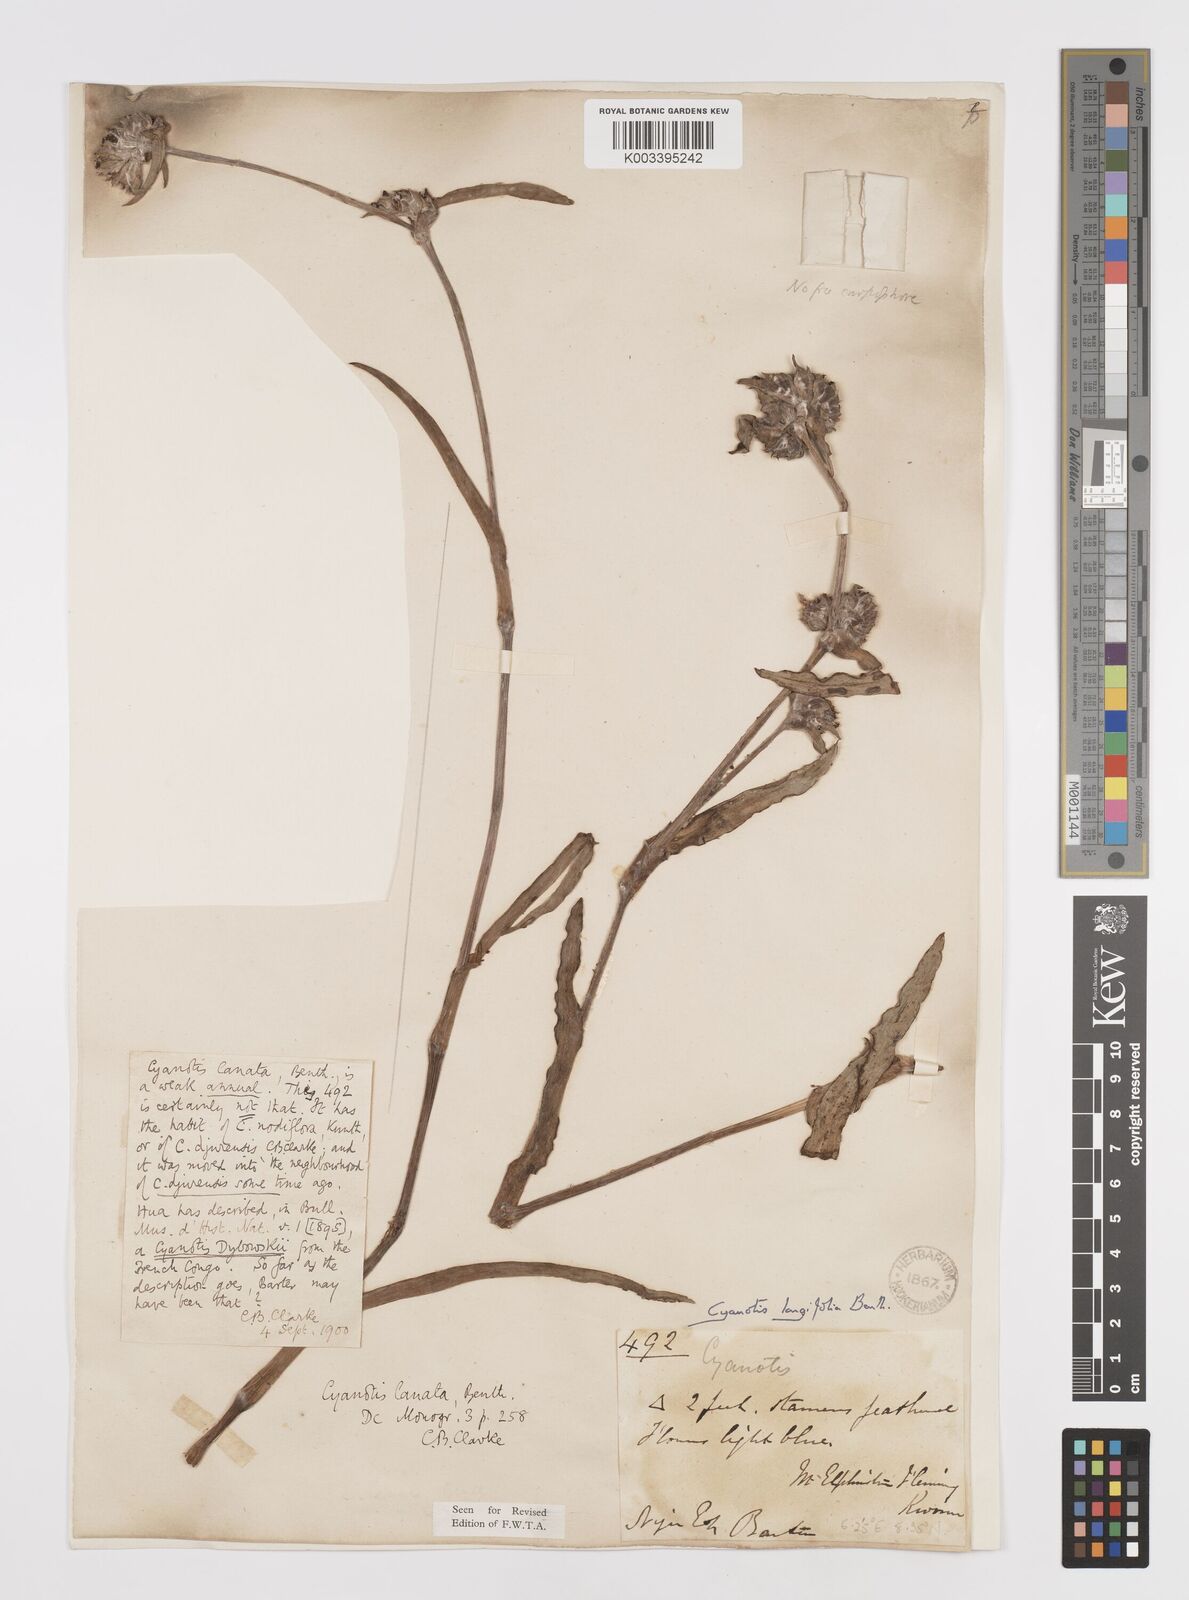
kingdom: Plantae
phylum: Tracheophyta
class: Liliopsida
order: Commelinales
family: Commelinaceae
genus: Cyanotis
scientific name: Cyanotis
